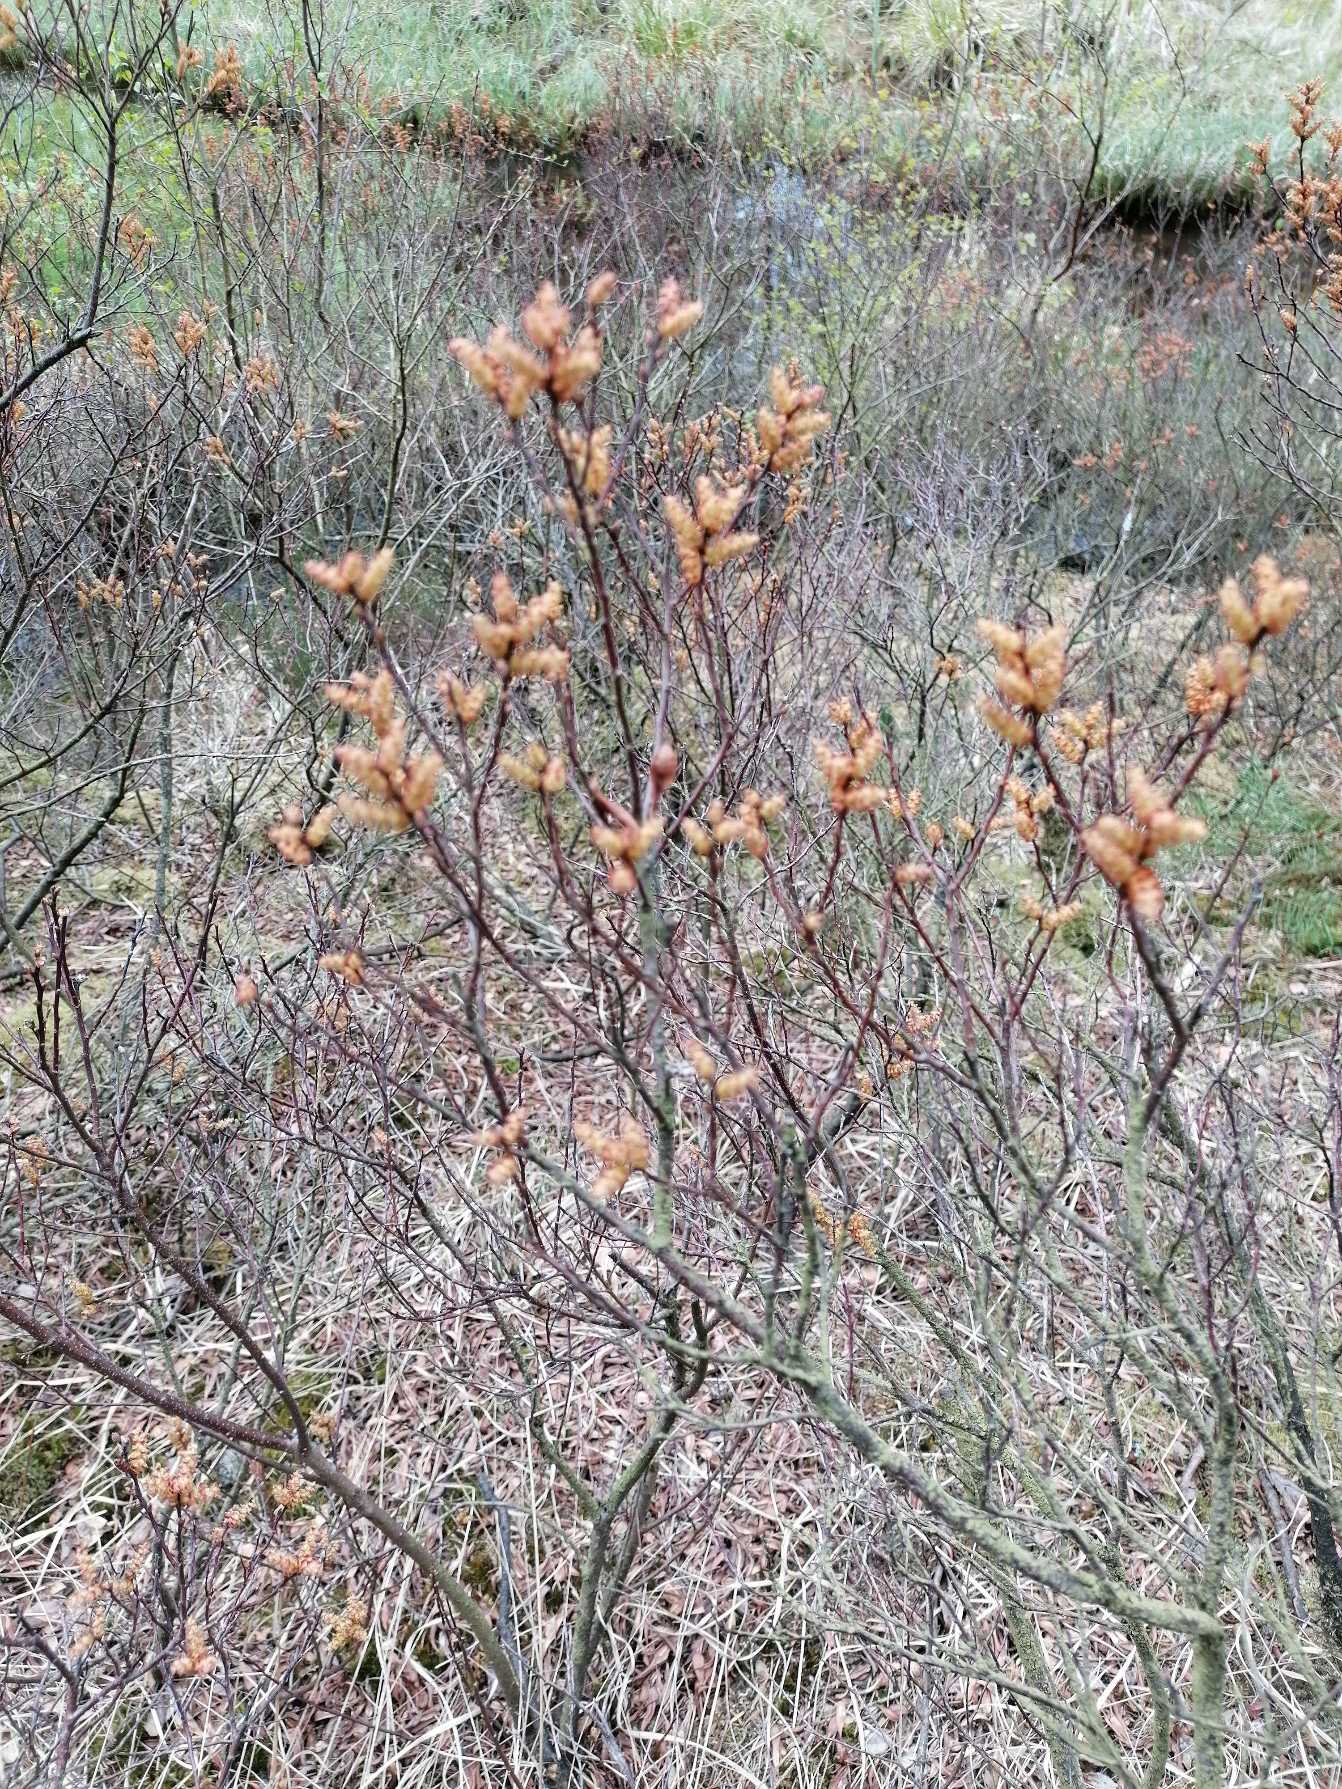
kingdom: Plantae
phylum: Tracheophyta
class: Magnoliopsida
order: Fagales
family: Myricaceae
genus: Myrica
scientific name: Myrica gale
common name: Pors
